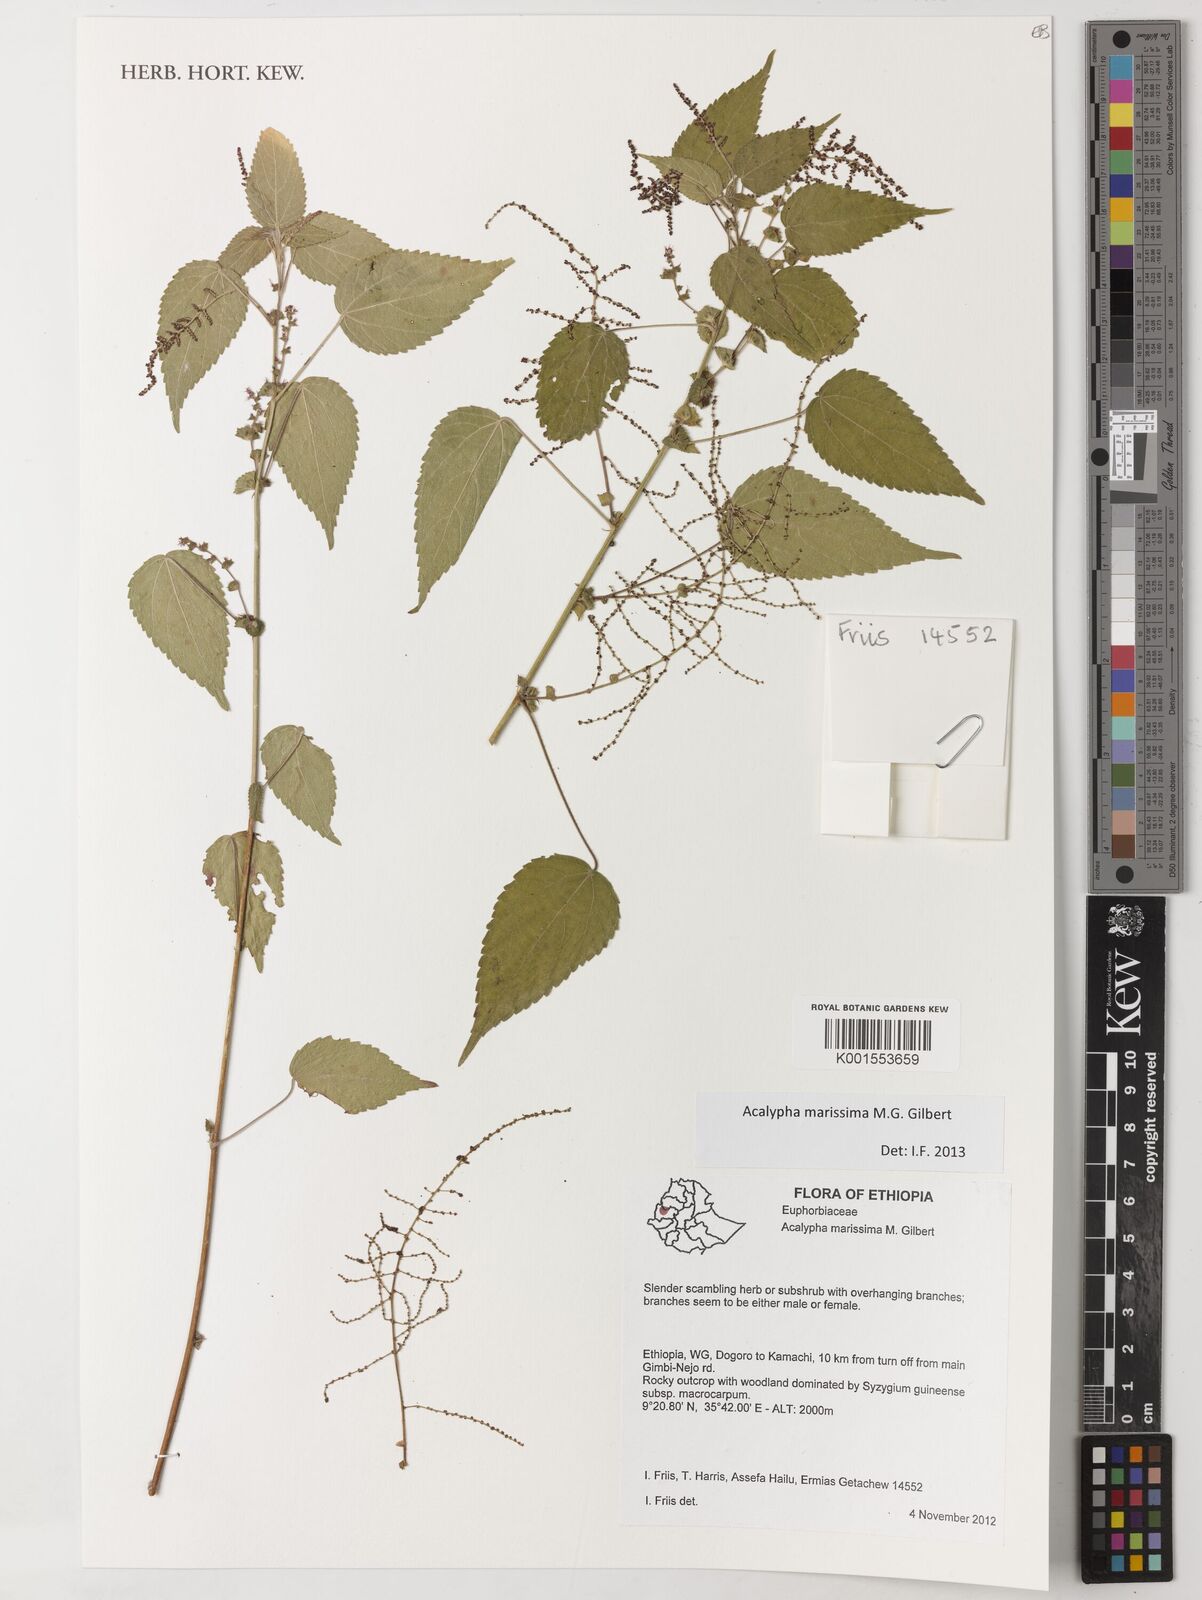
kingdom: Plantae
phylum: Tracheophyta
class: Magnoliopsida
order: Malpighiales
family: Euphorbiaceae
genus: Acalypha
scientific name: Acalypha marissima
